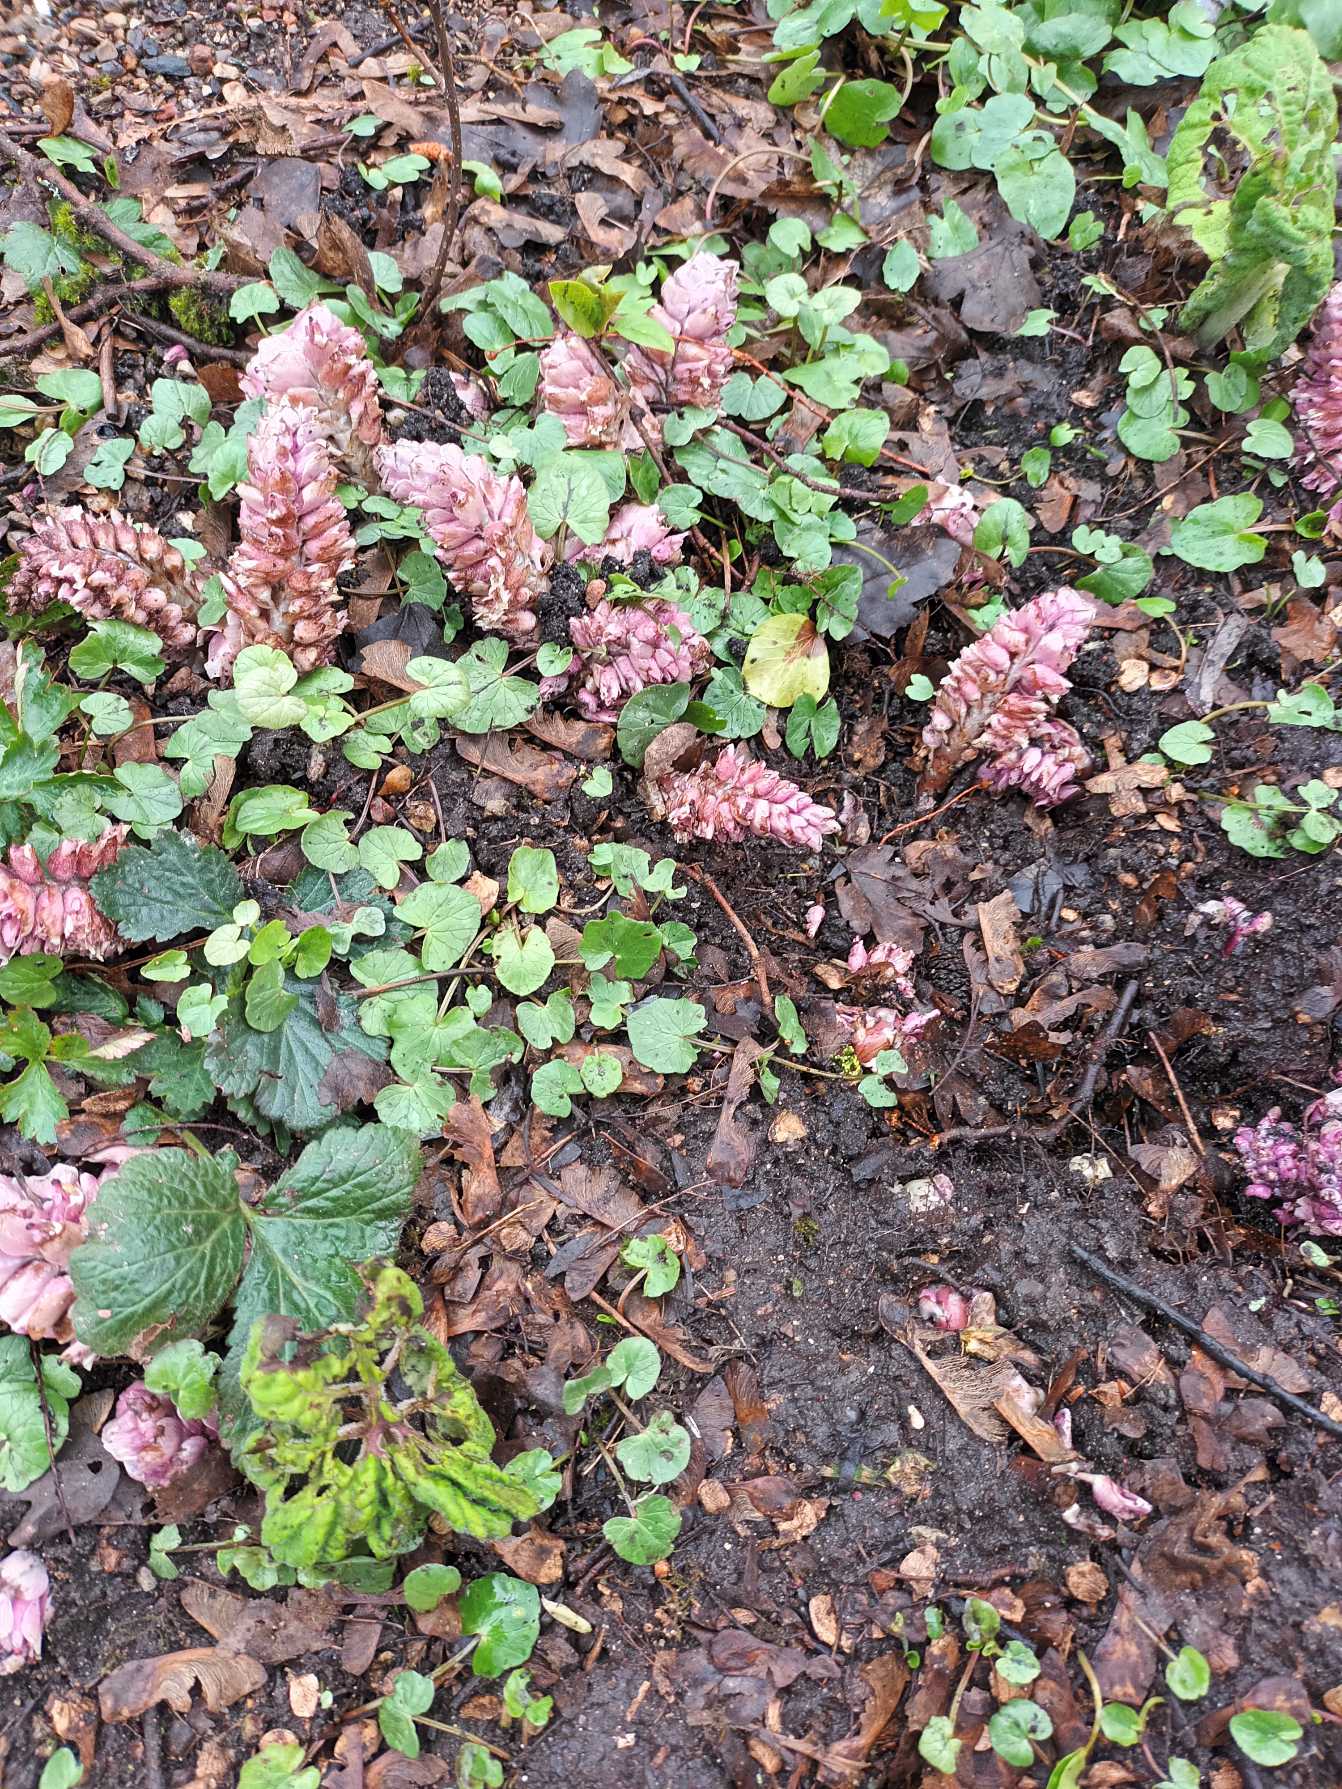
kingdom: Plantae
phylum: Tracheophyta
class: Magnoliopsida
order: Lamiales
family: Orobanchaceae
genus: Lathraea
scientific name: Lathraea squamaria
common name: Skælrod
